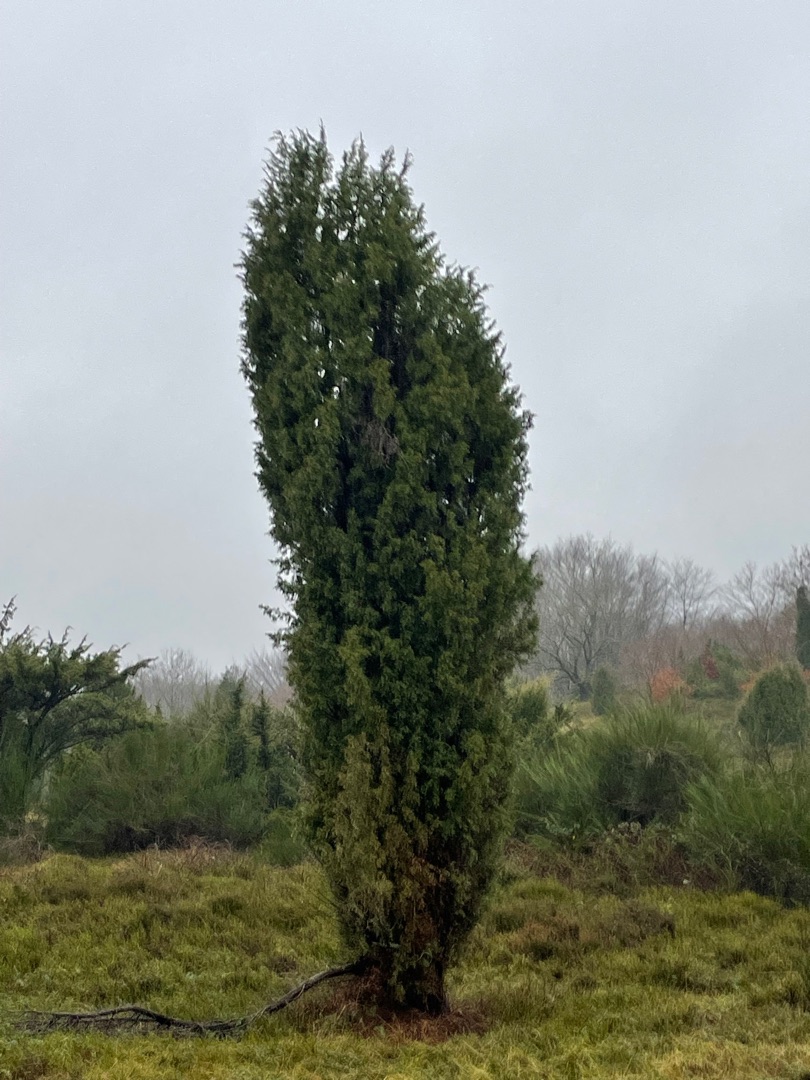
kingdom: Plantae
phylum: Tracheophyta
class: Pinopsida
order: Pinales
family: Cupressaceae
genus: Juniperus
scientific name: Juniperus communis
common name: Almindelig ene
